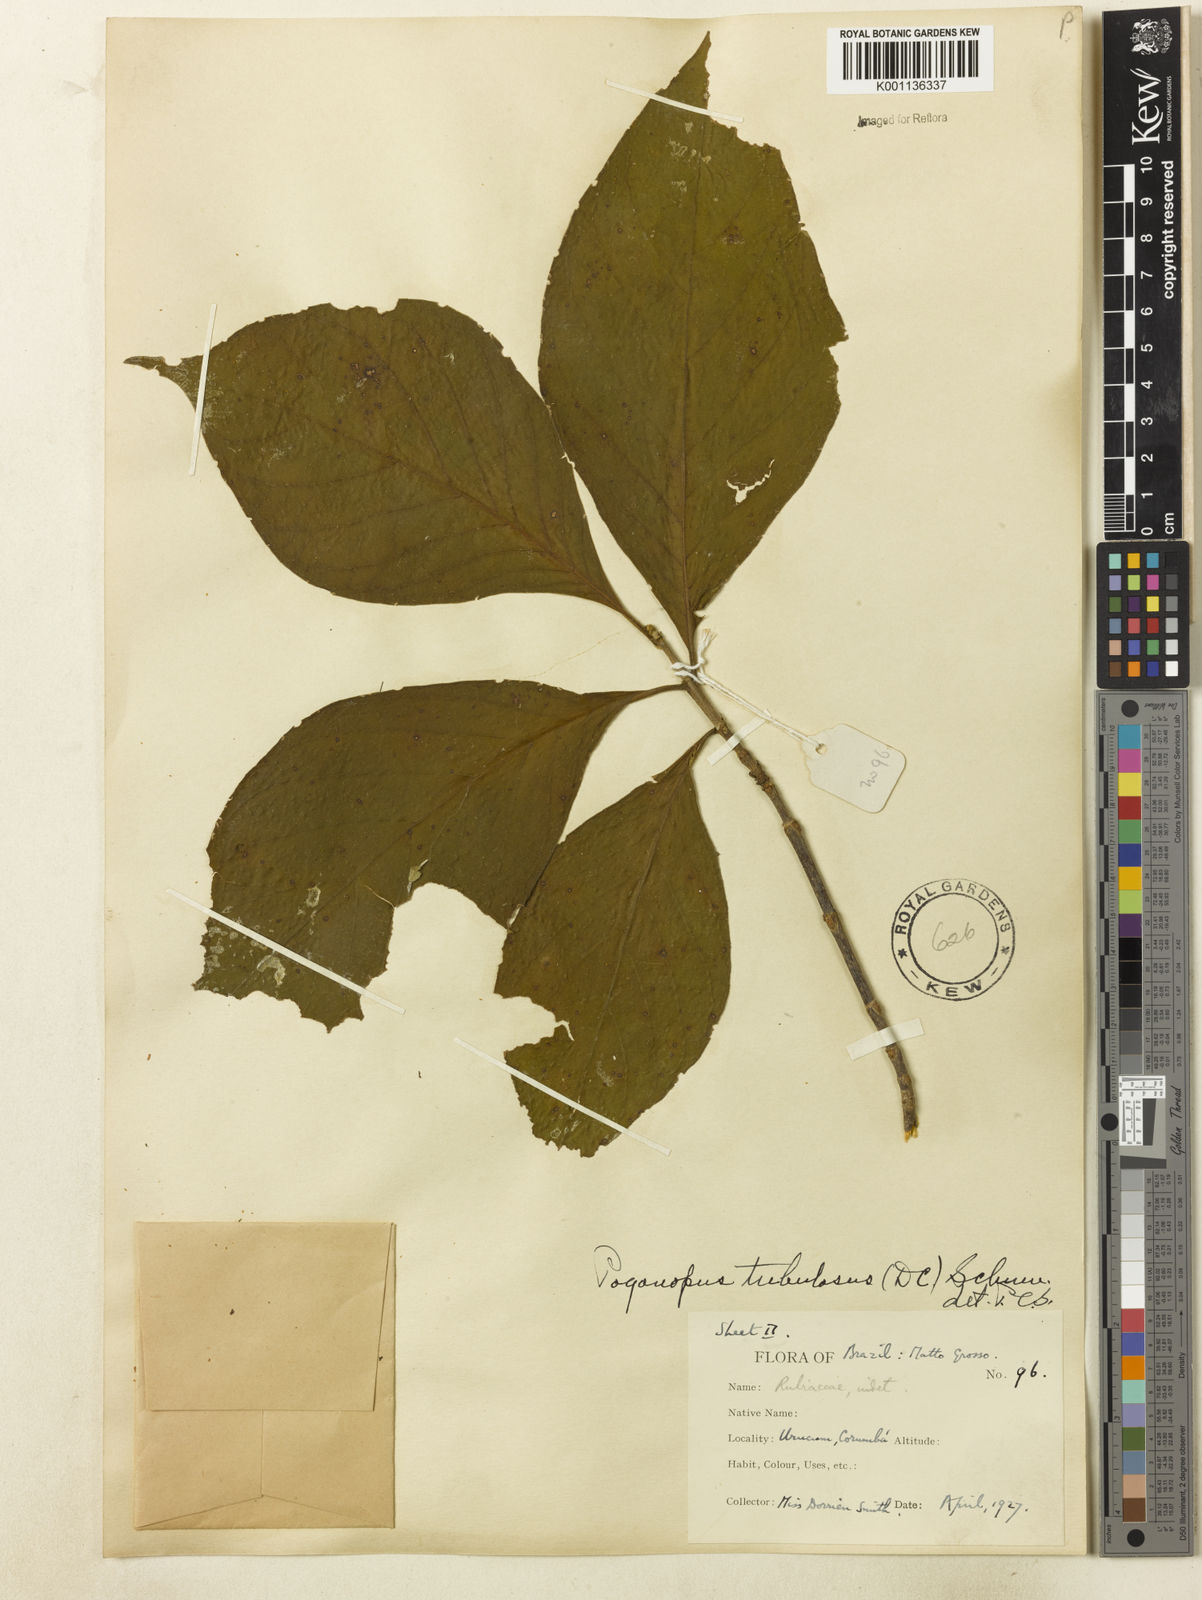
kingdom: Plantae
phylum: Tracheophyta
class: Magnoliopsida
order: Gentianales
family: Rubiaceae
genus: Pogonopus
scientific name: Pogonopus tubulosus
